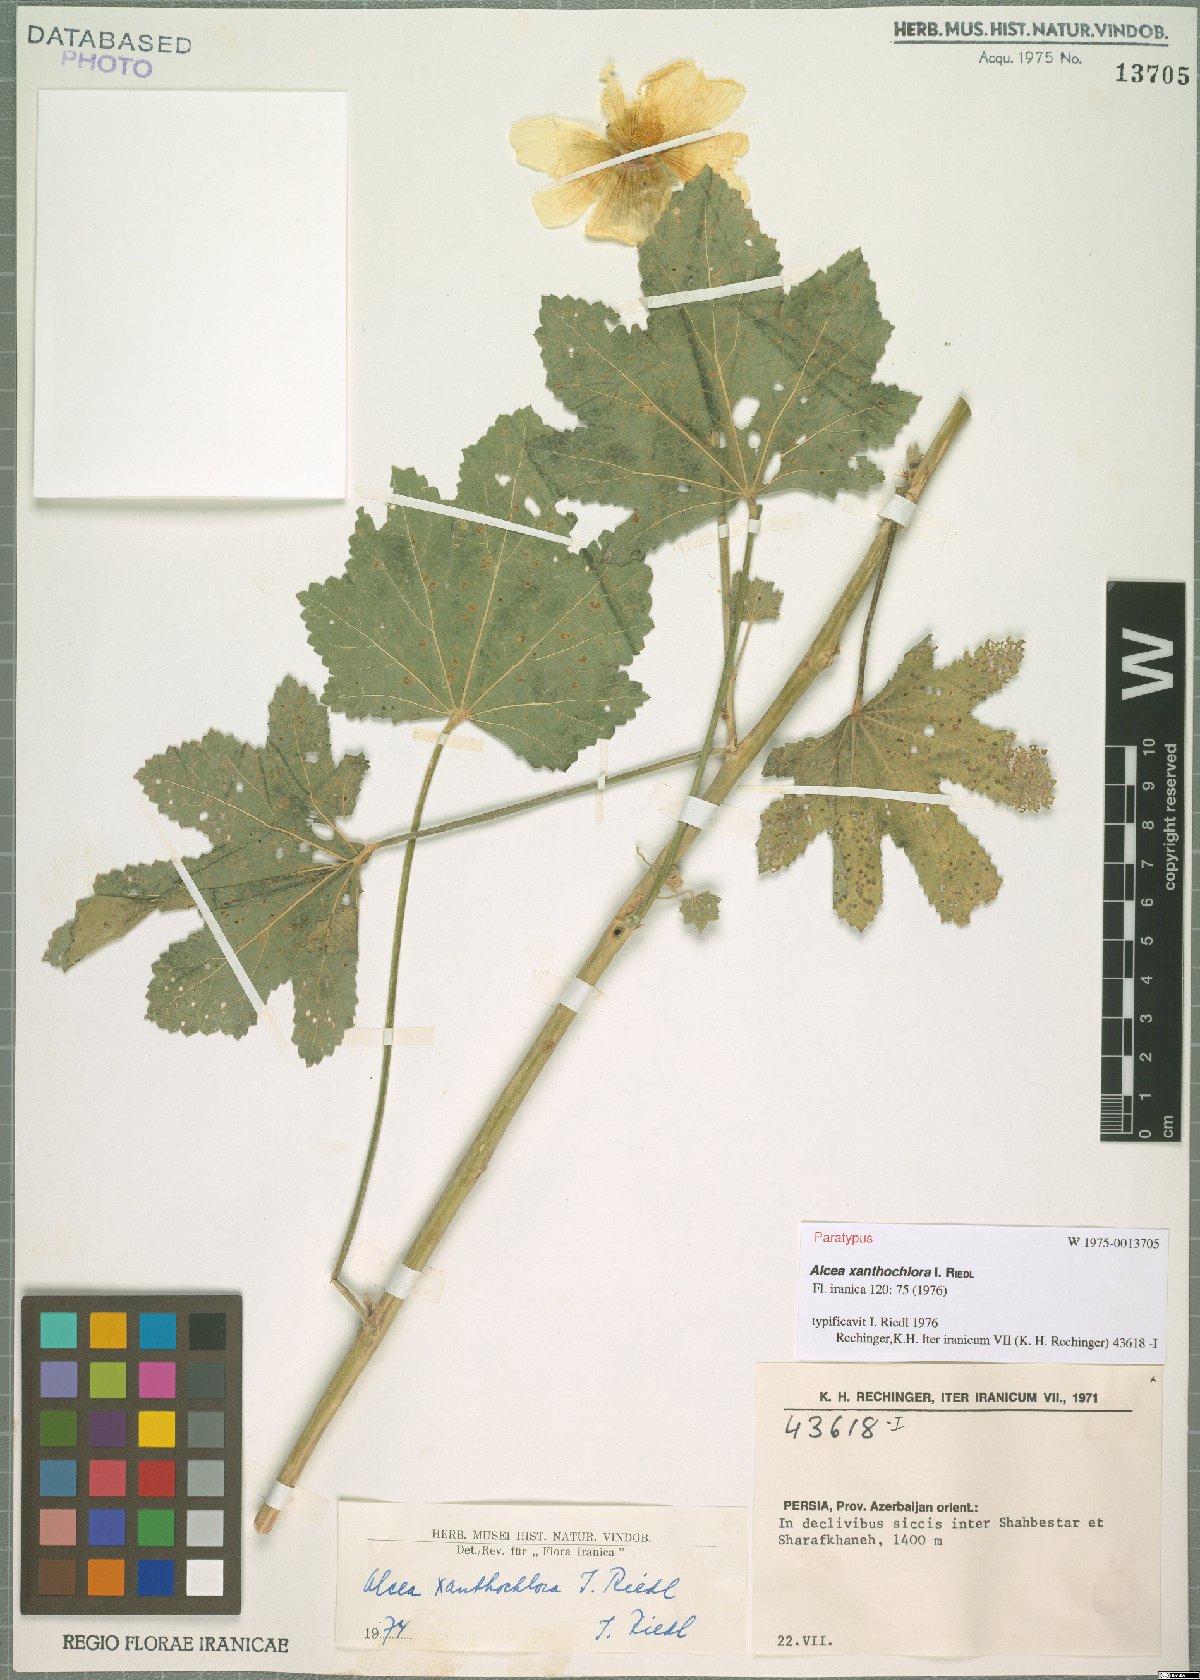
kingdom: Plantae
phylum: Tracheophyta
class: Magnoliopsida
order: Malvales
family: Malvaceae
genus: Alcea
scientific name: Alcea xanthochlora
